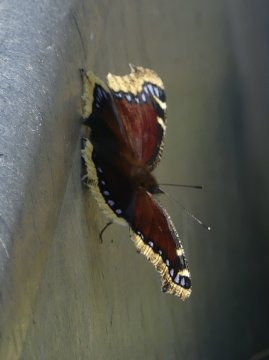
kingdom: Animalia
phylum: Arthropoda
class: Insecta
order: Lepidoptera
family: Nymphalidae
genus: Nymphalis
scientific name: Nymphalis antiopa
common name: Mourning Cloak
